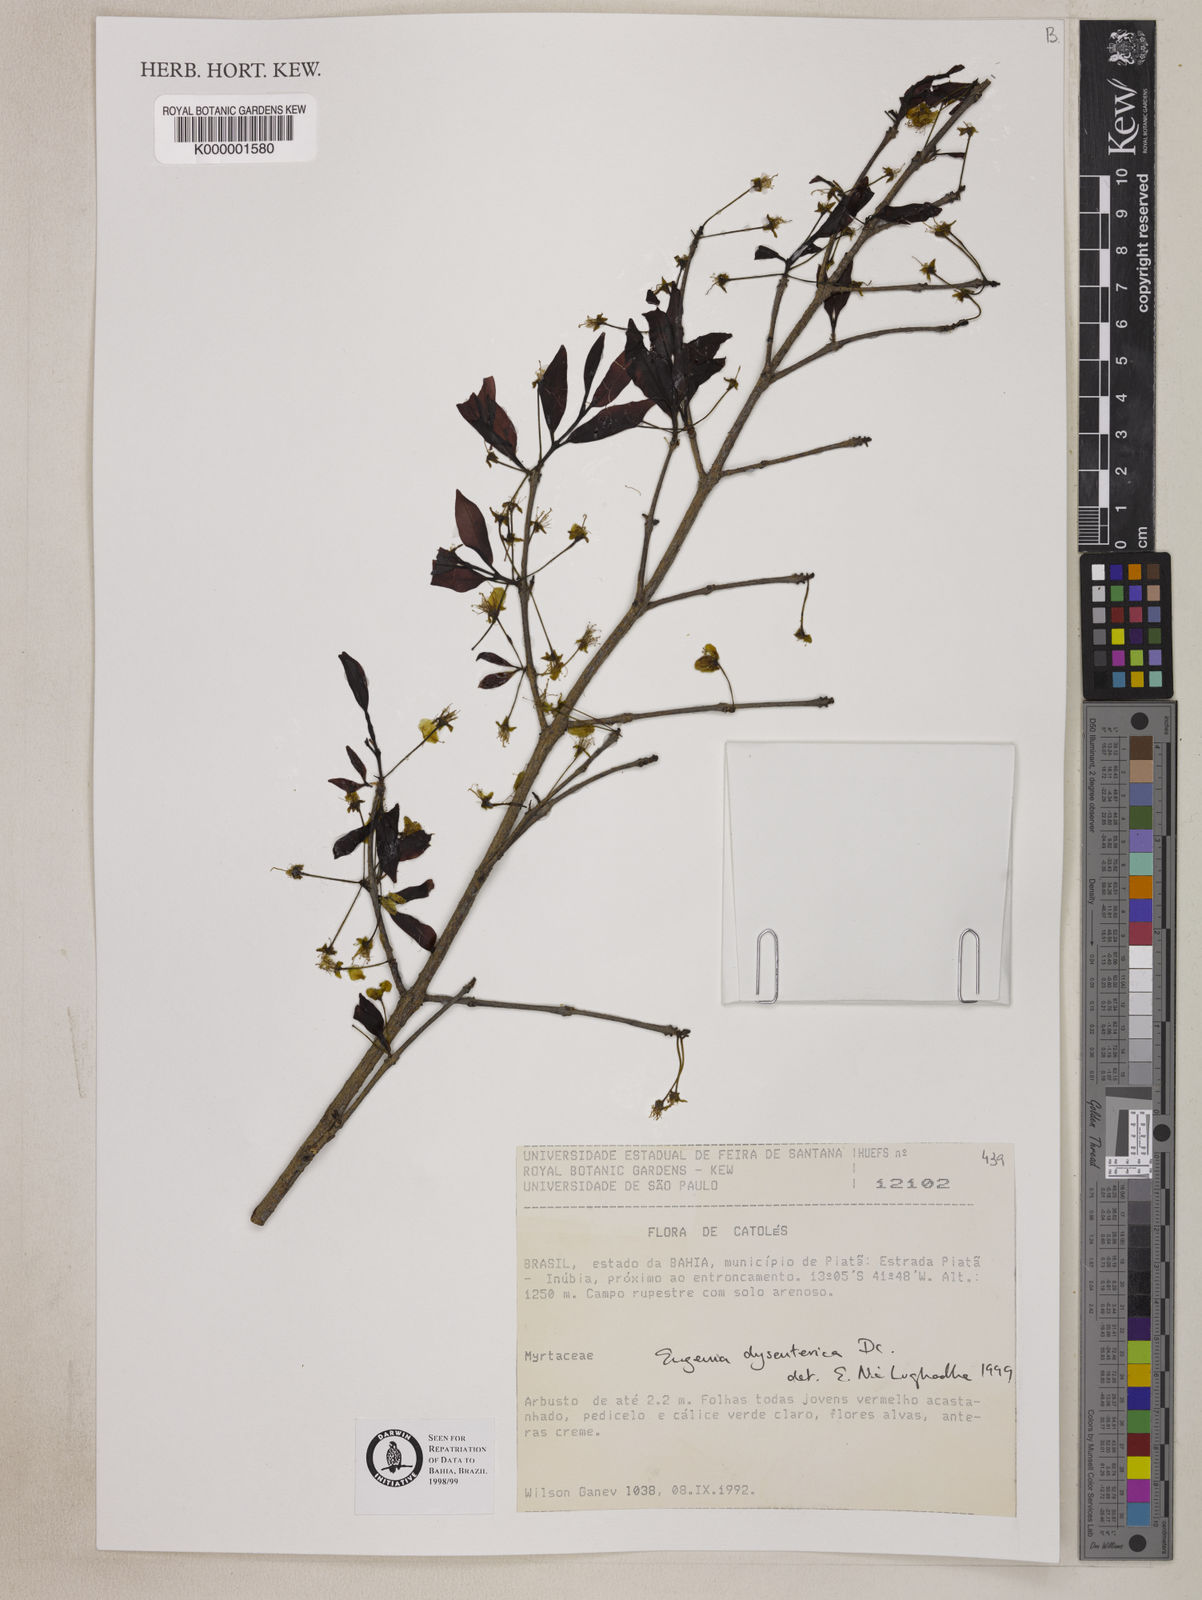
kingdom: Plantae
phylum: Tracheophyta
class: Magnoliopsida
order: Myrtales
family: Myrtaceae
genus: Eugenia
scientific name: Eugenia dysenterica
